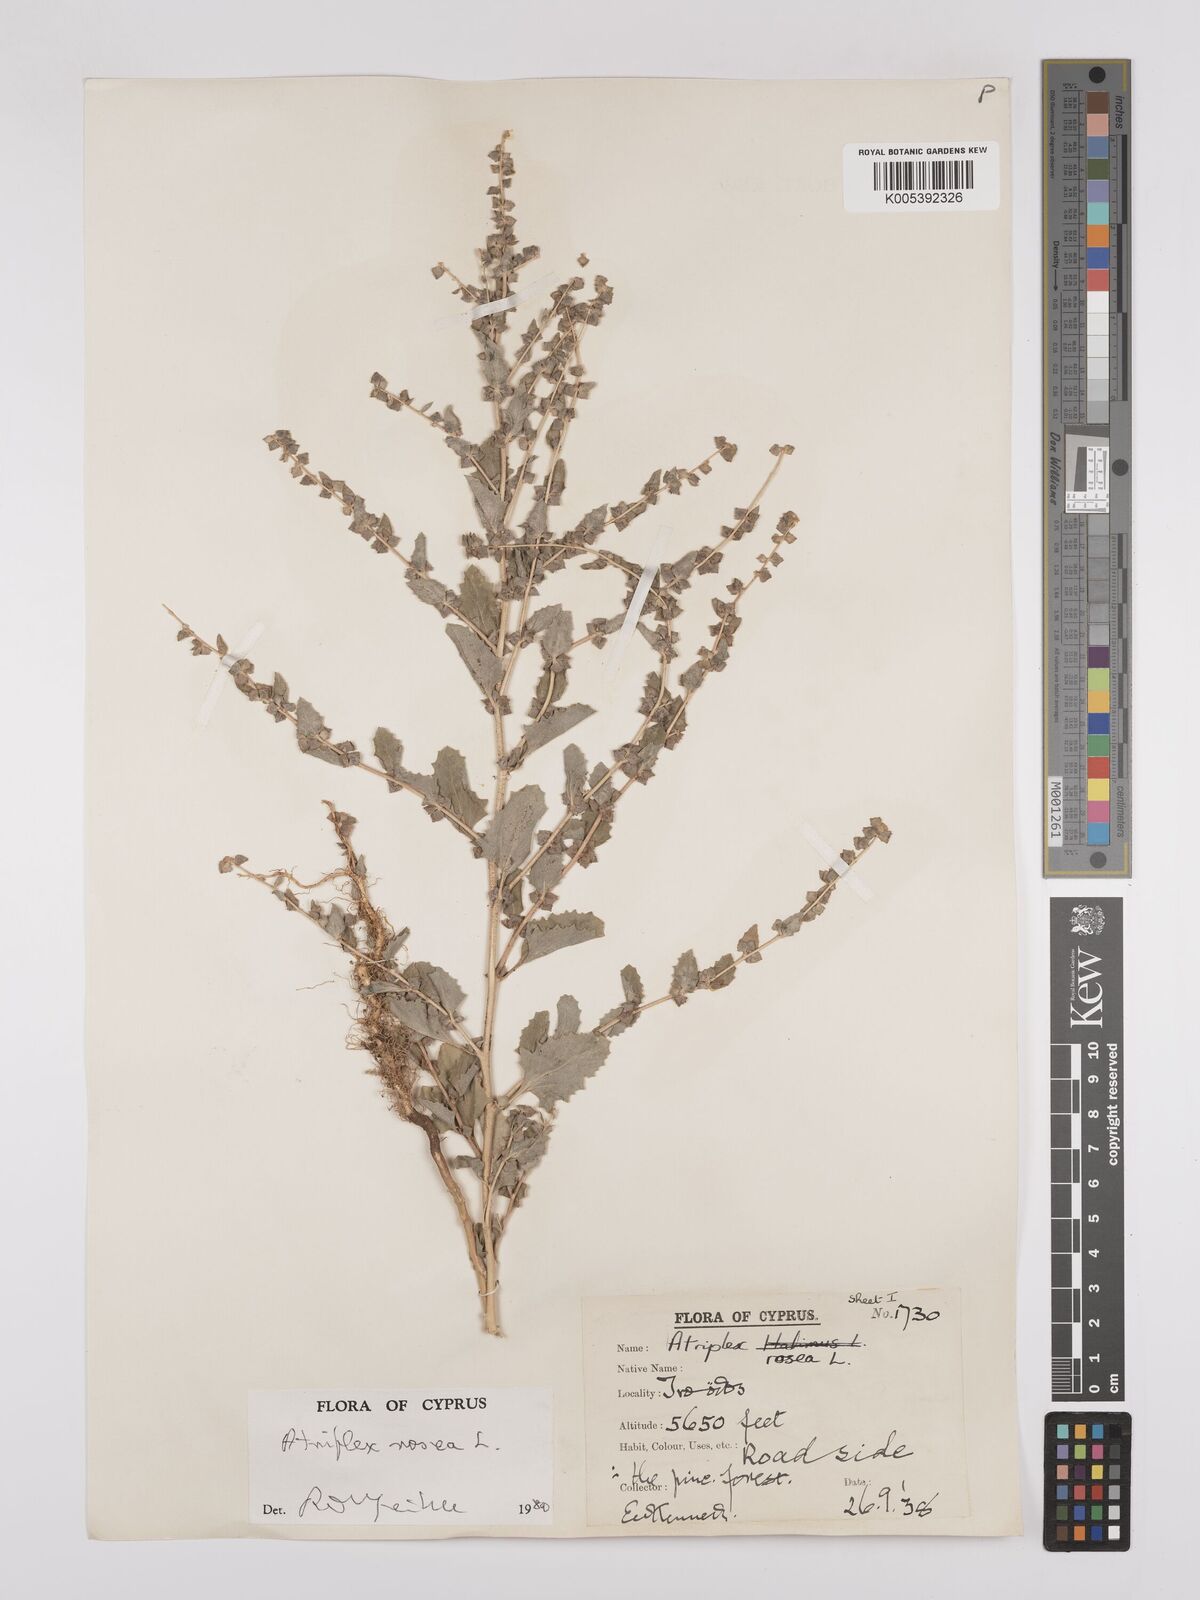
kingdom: Plantae
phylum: Tracheophyta
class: Magnoliopsida
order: Caryophyllales
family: Amaranthaceae
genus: Atriplex
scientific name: Atriplex
